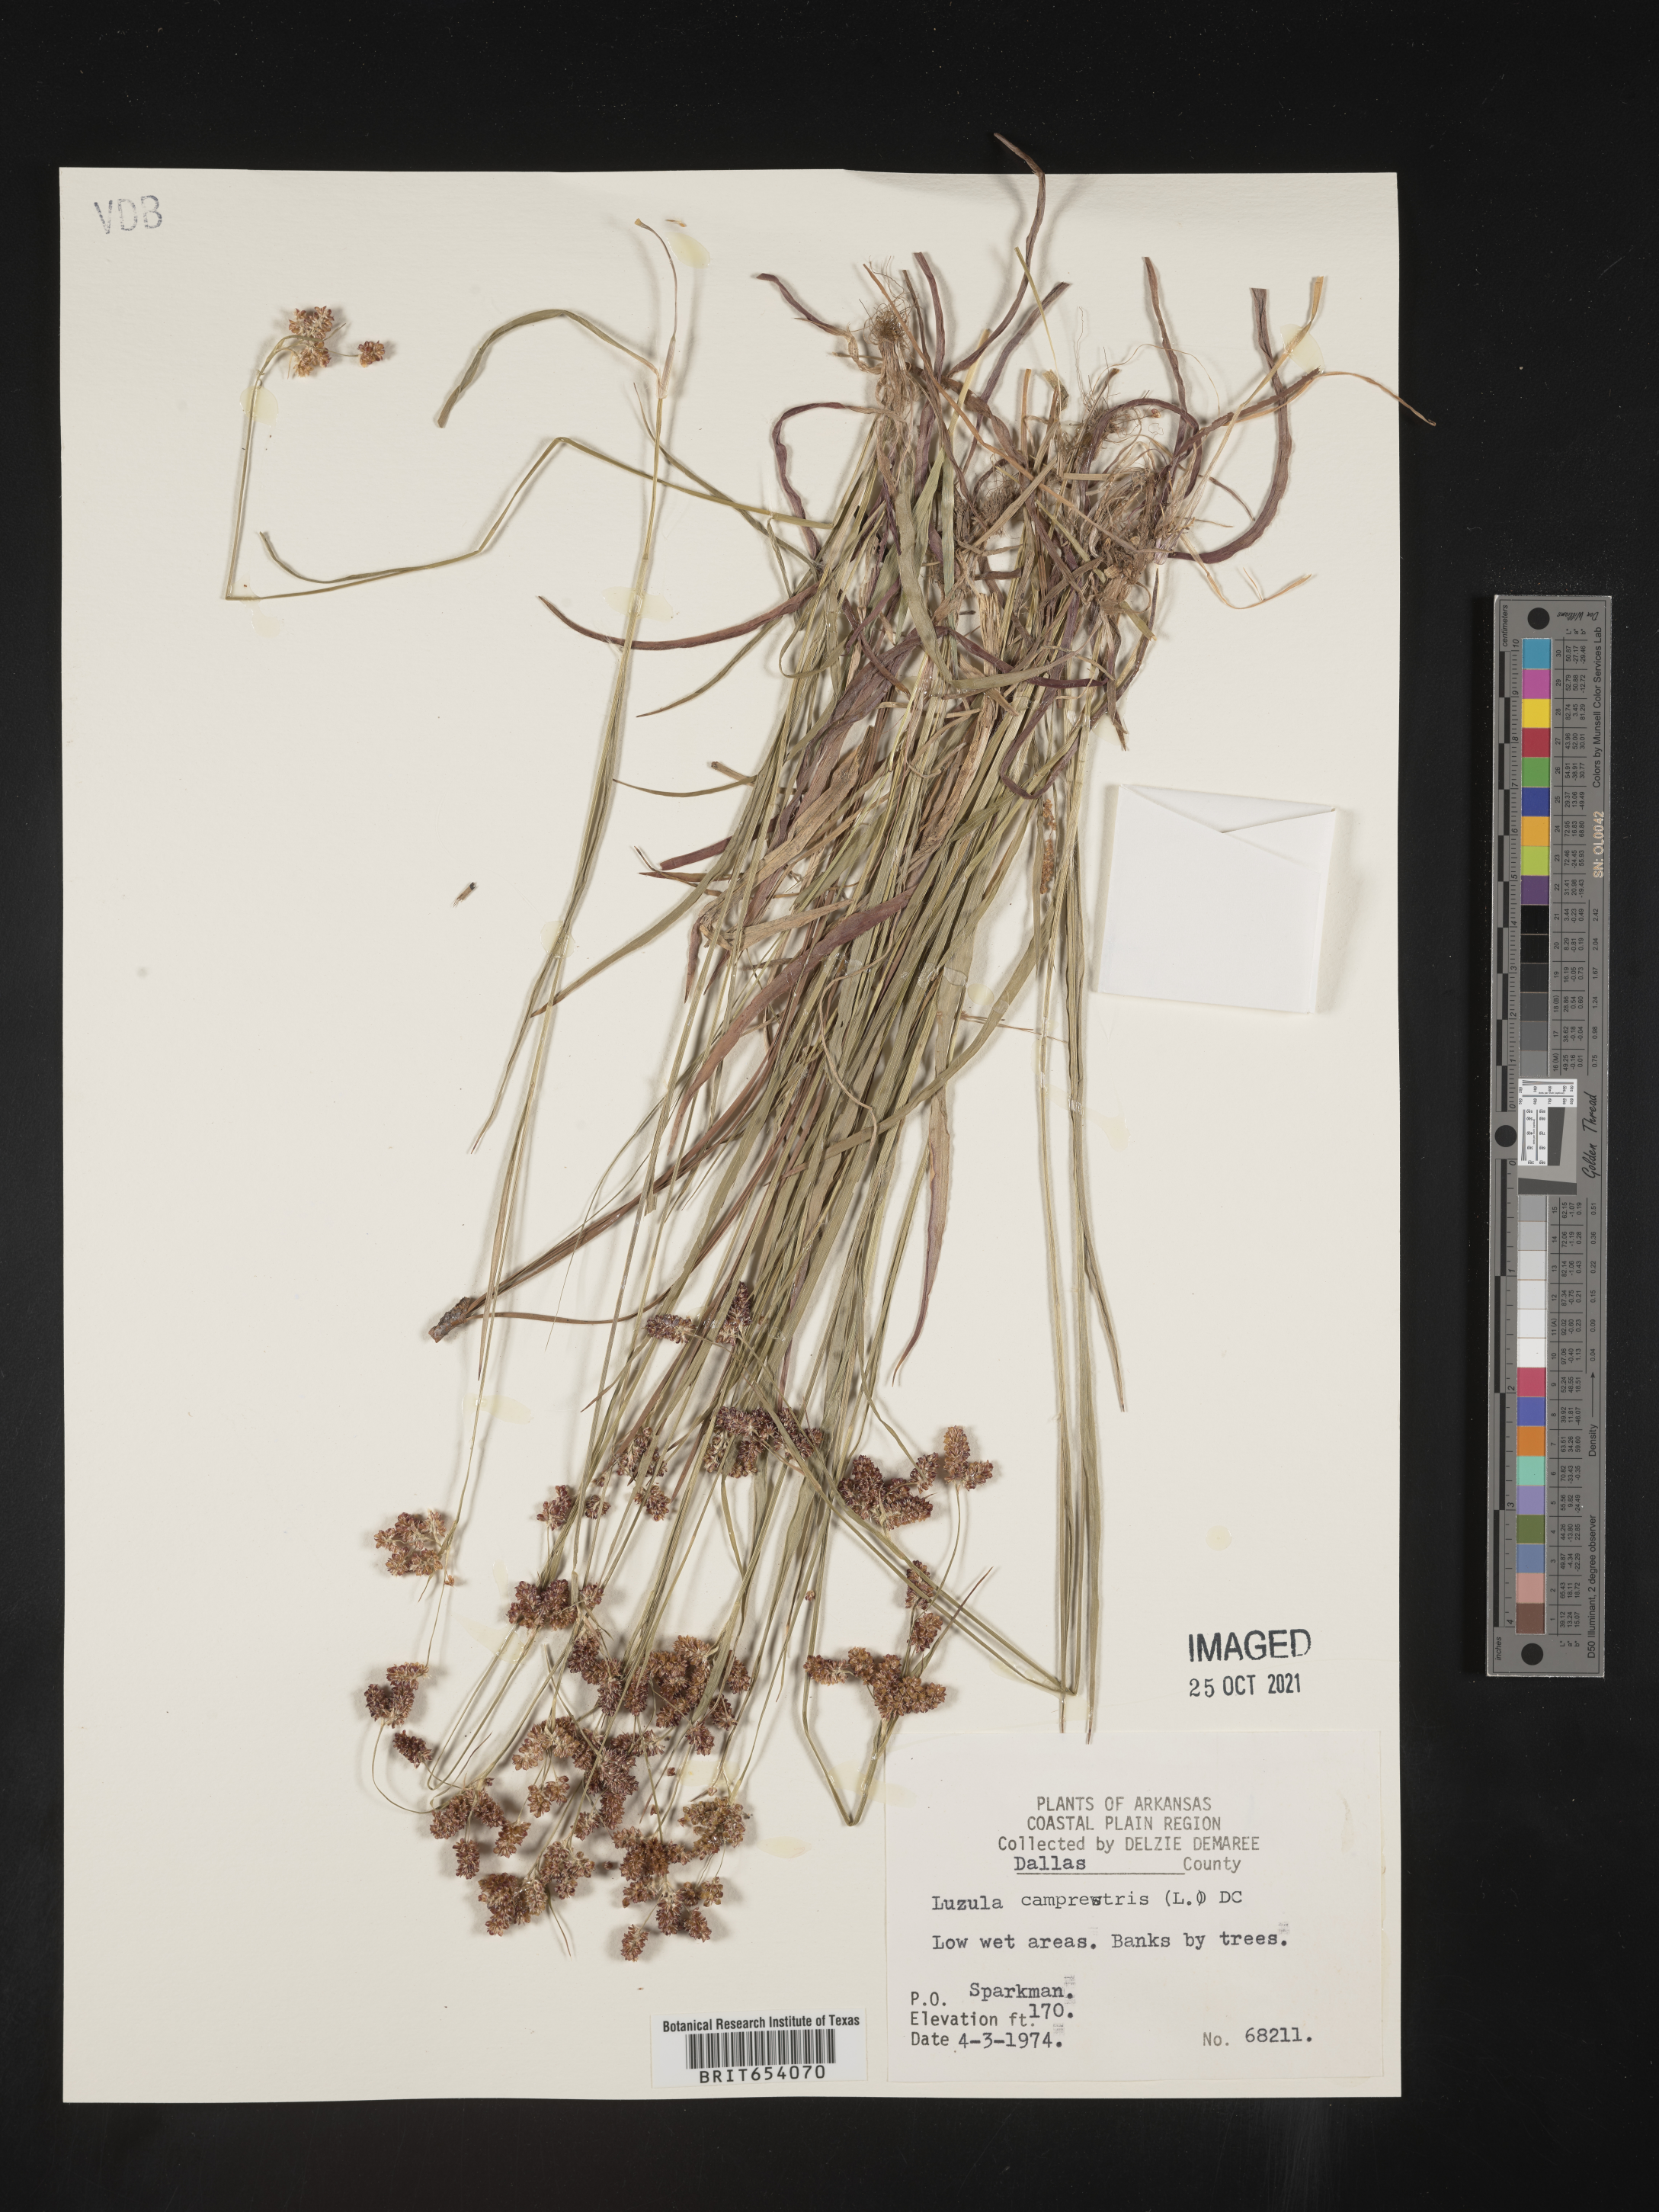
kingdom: Plantae
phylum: Tracheophyta
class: Liliopsida
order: Poales
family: Juncaceae
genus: Luzula
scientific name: Luzula campestris
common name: Field wood-rush
